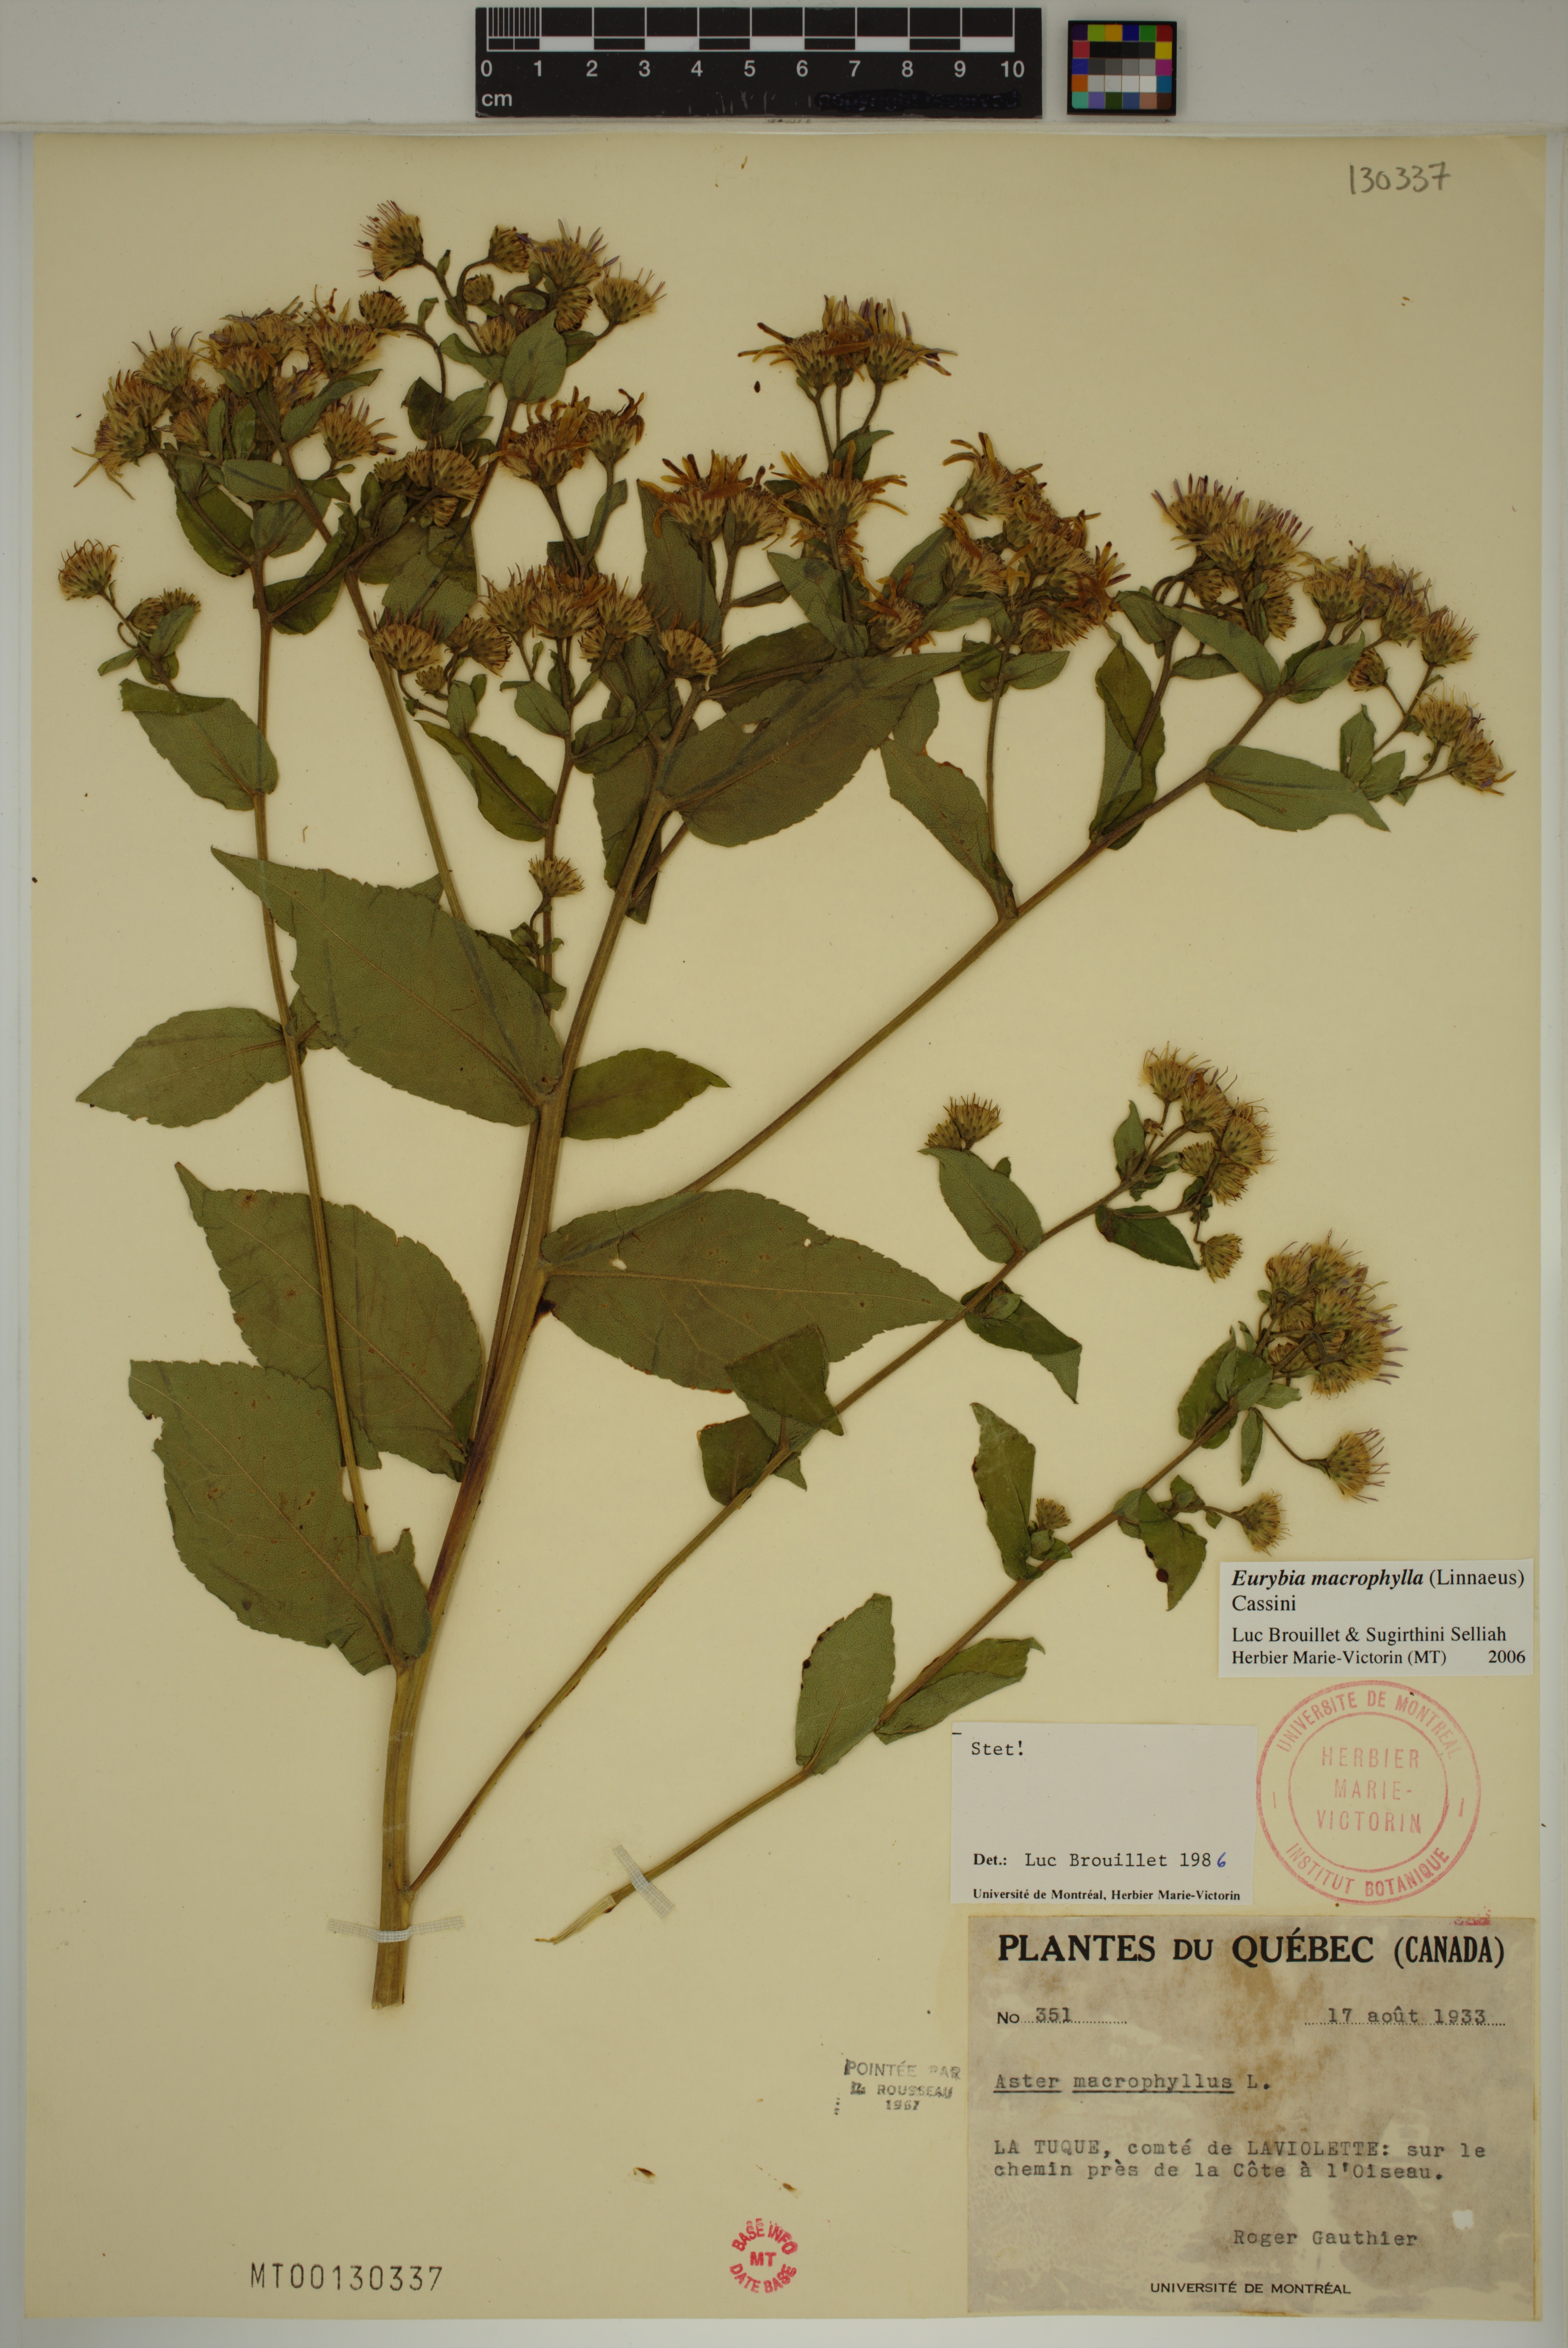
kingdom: Plantae
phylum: Tracheophyta
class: Magnoliopsida
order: Asterales
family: Asteraceae
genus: Eurybia
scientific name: Eurybia macrophylla
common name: Big-leaved aster
